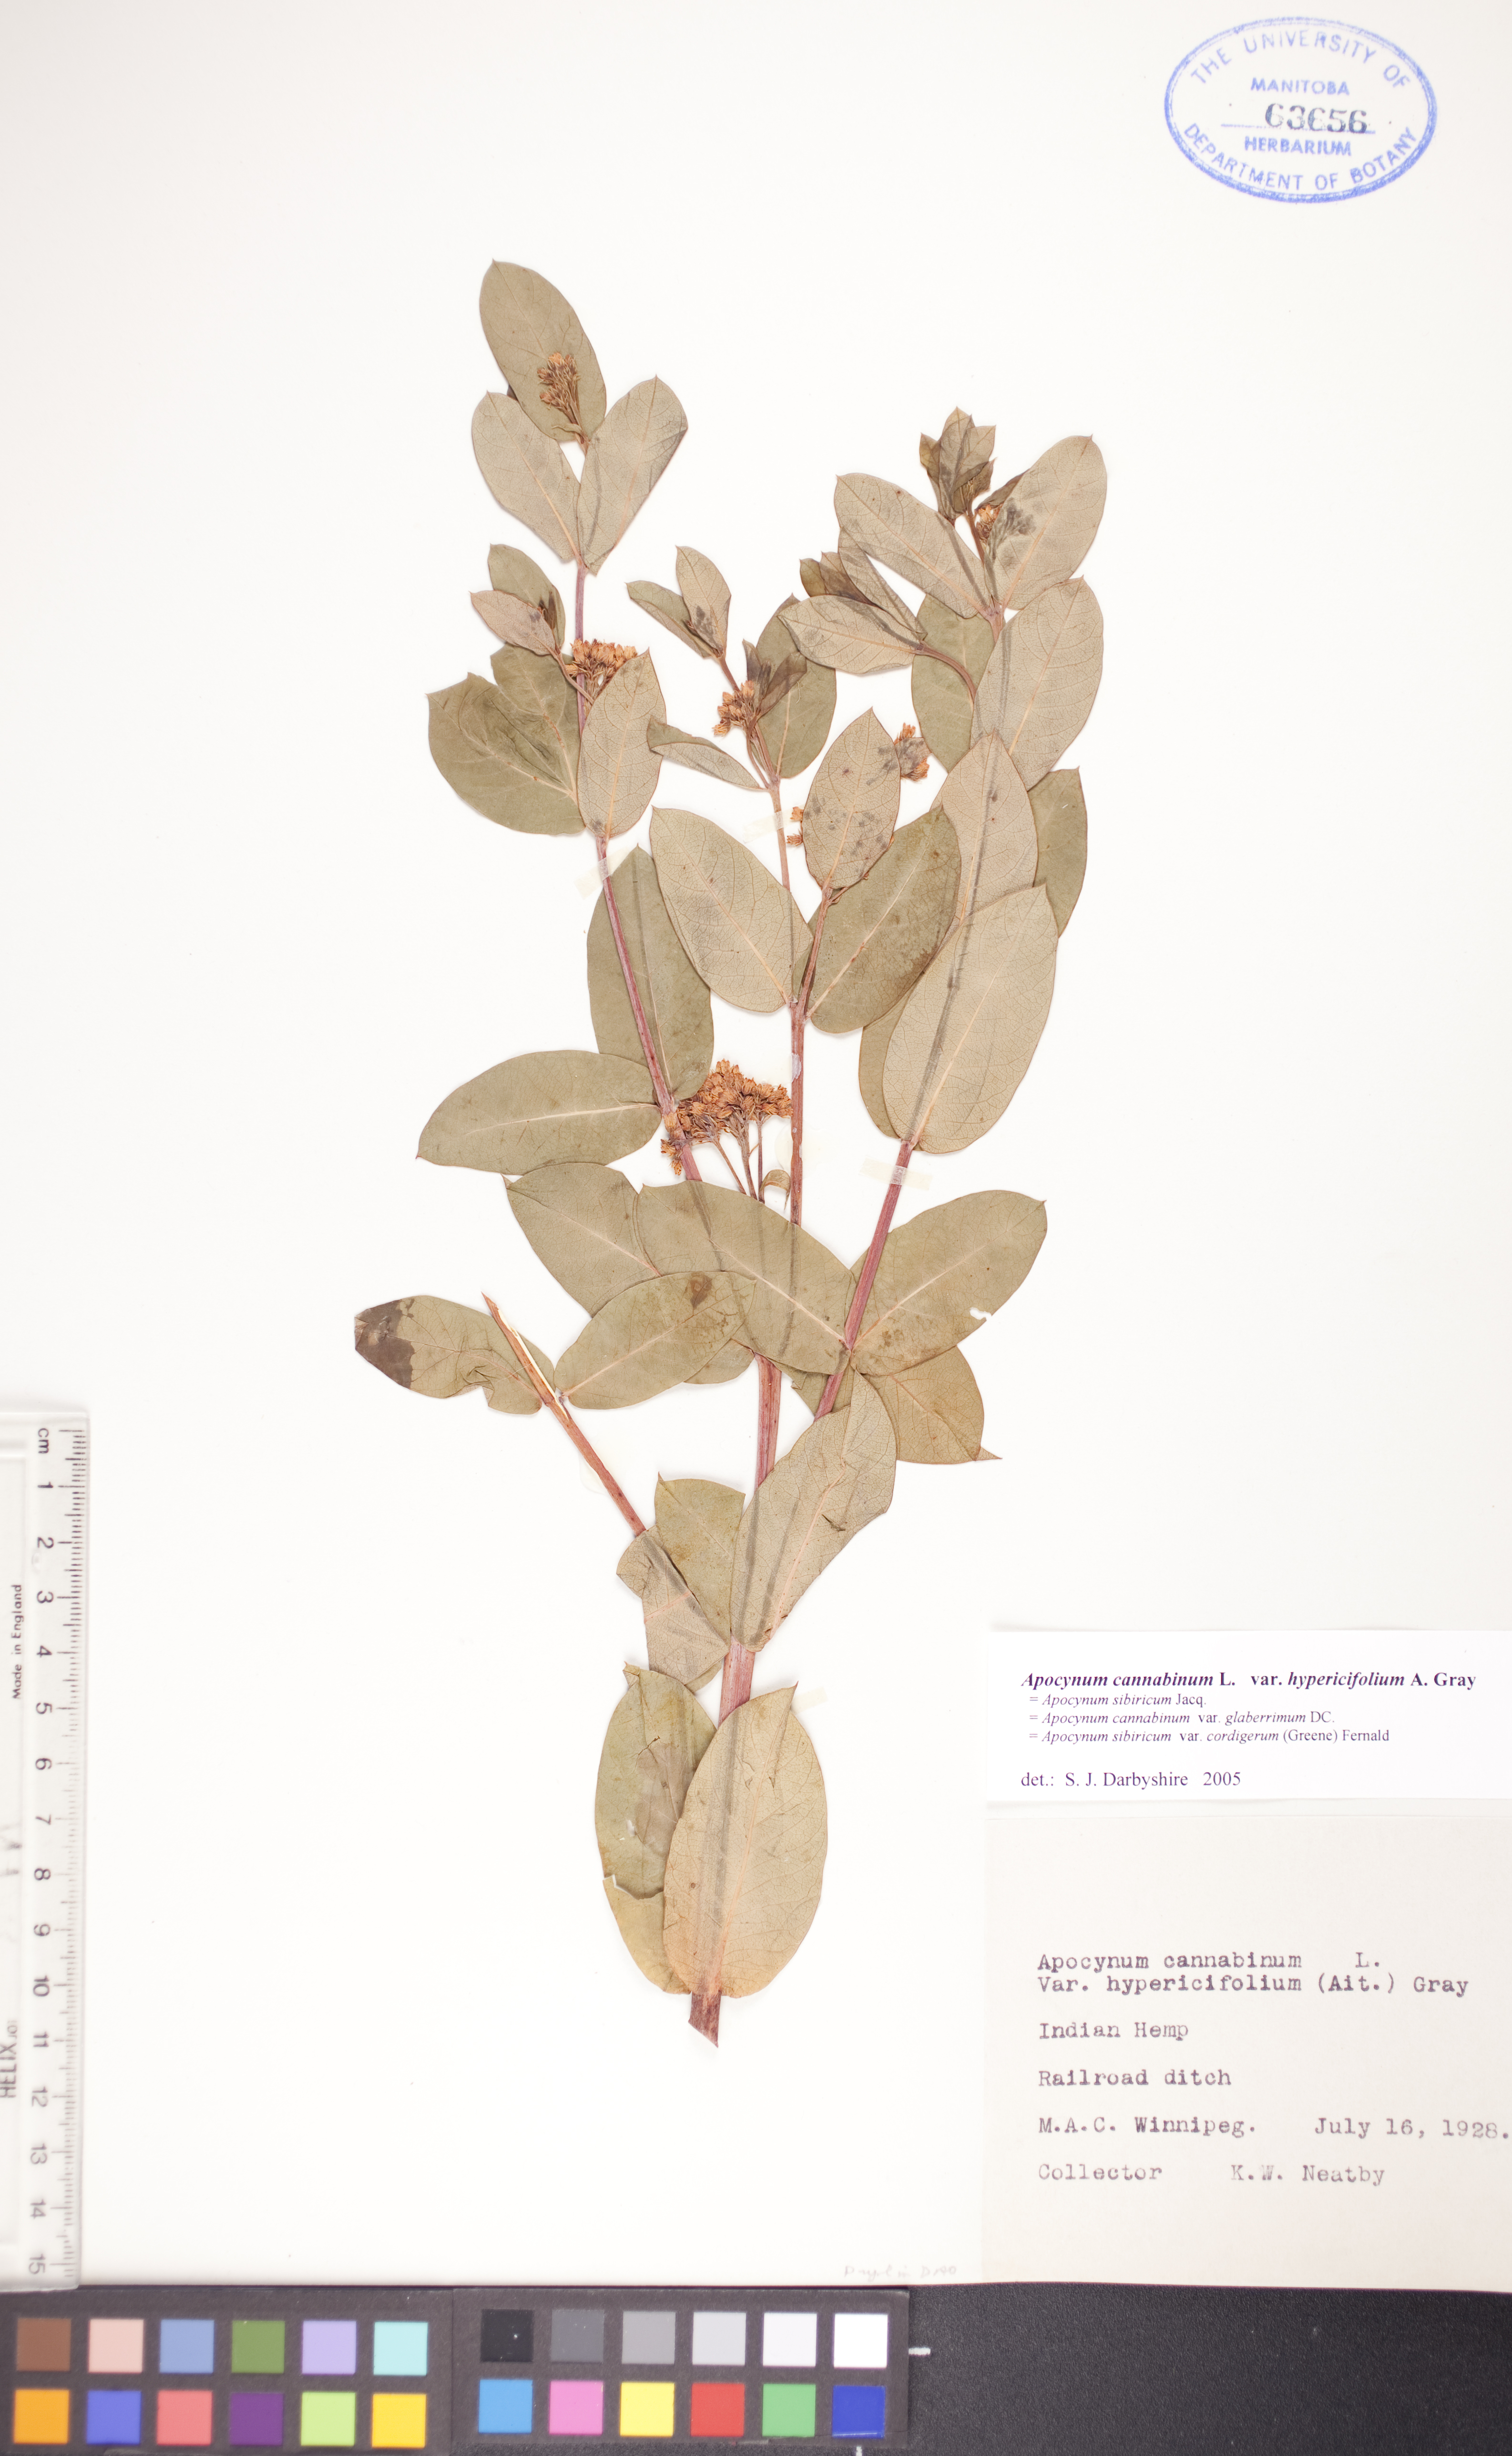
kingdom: Plantae
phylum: Tracheophyta
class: Magnoliopsida
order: Gentianales
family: Apocynaceae
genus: Apocynum
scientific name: Apocynum cannabinum
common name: Hemp dogbane
